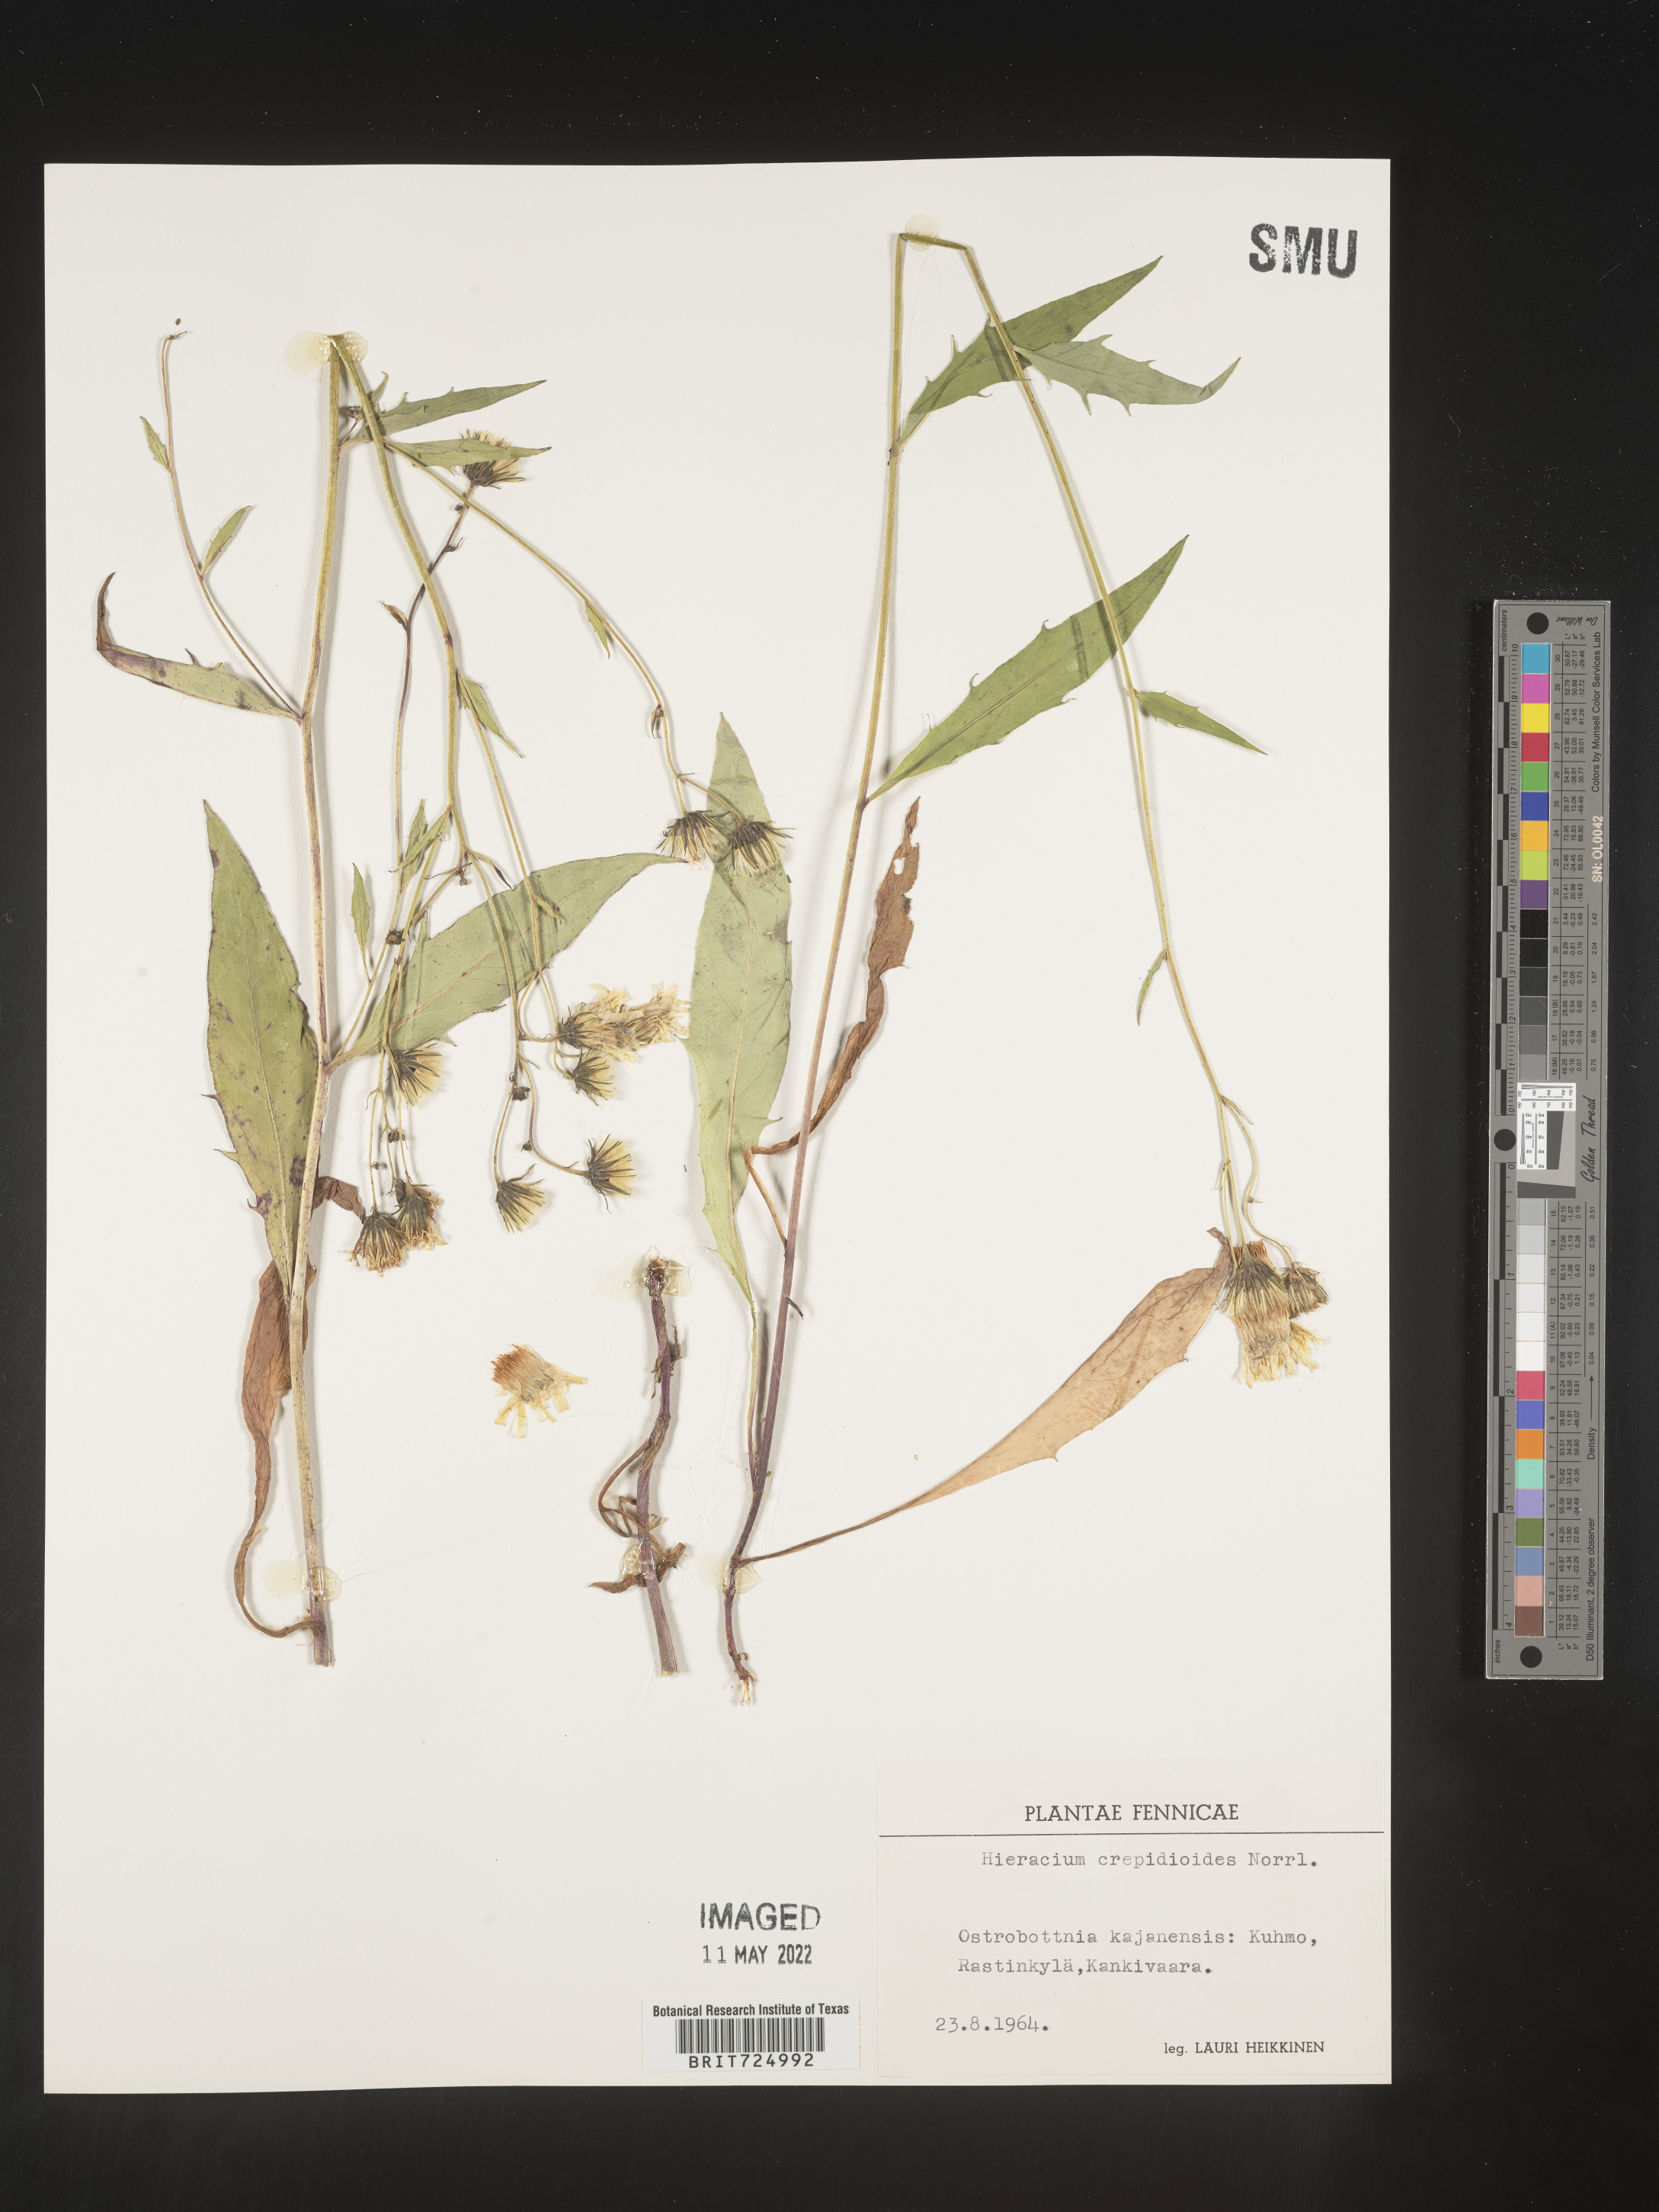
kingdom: Plantae
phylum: Tracheophyta
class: Magnoliopsida
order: Asterales
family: Asteraceae
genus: Hieracium
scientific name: Hieracium
